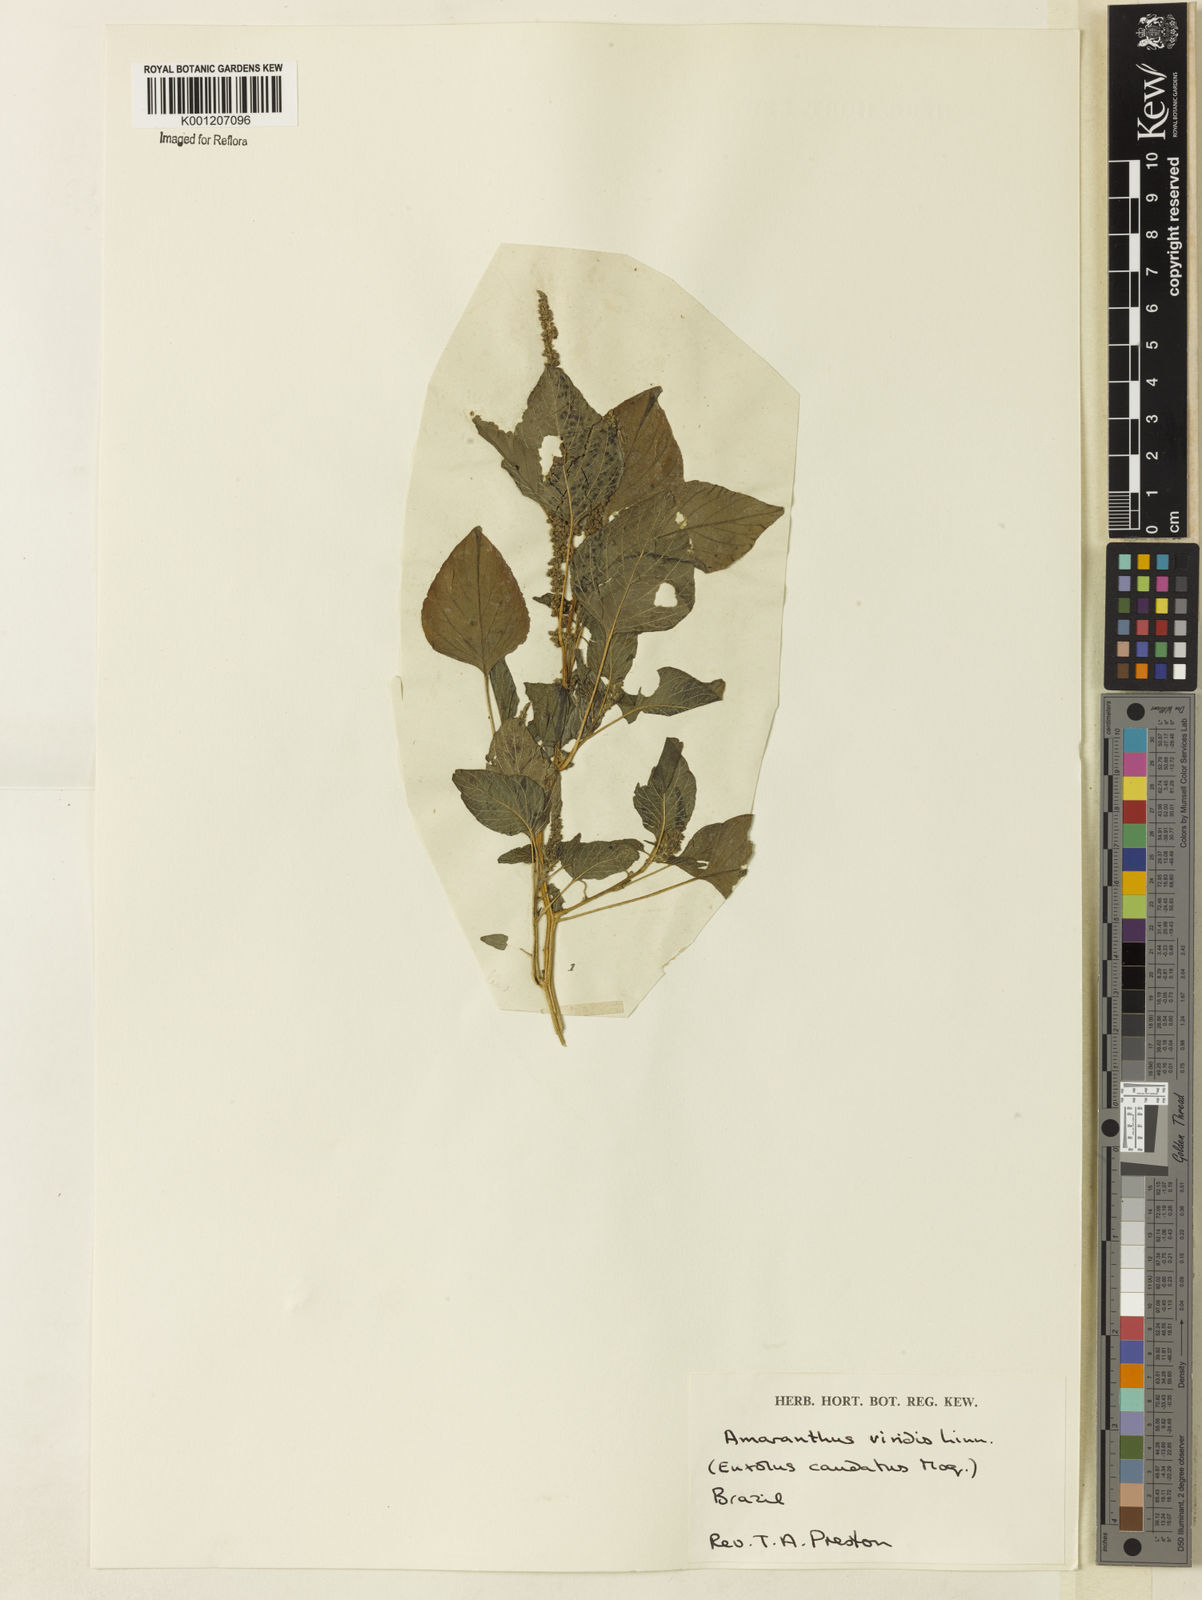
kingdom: Plantae
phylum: Tracheophyta
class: Magnoliopsida
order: Caryophyllales
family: Amaranthaceae
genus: Amaranthus
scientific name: Amaranthus spinosus
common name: Spiny amaranth
